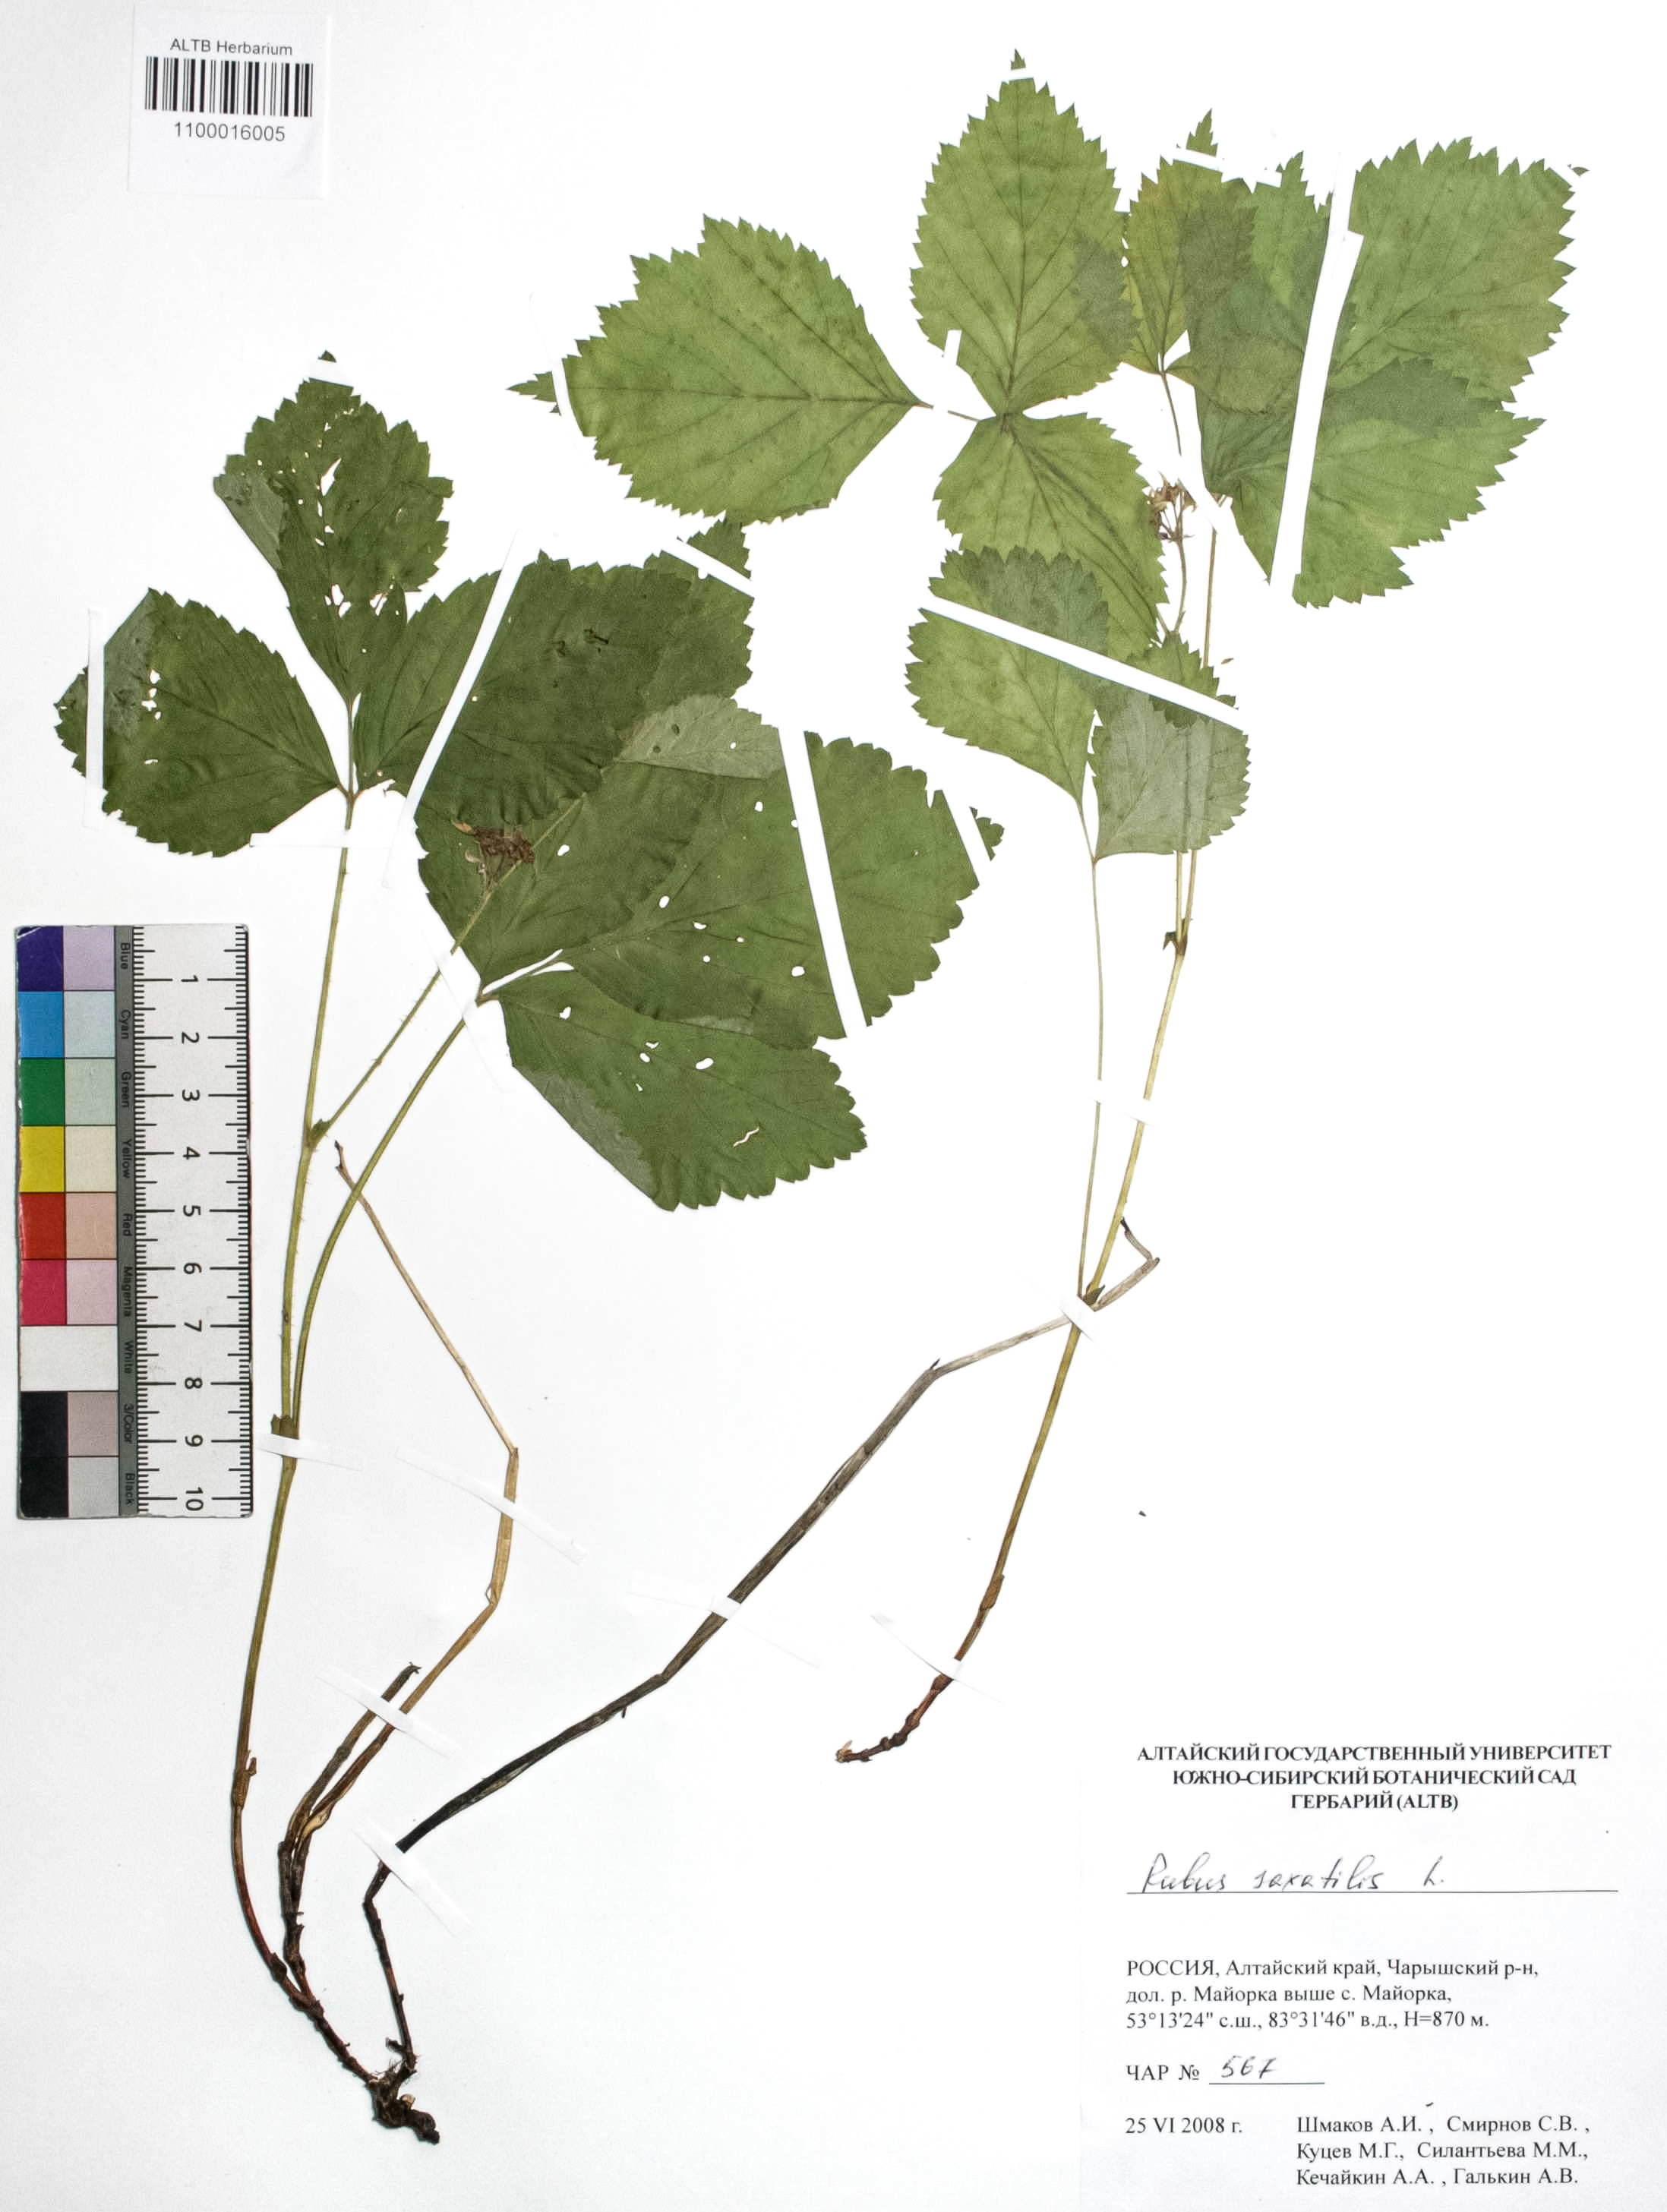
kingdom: Plantae
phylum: Tracheophyta
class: Magnoliopsida
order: Rosales
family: Rosaceae
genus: Rubus
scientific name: Rubus saxatilis
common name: Stone bramble
